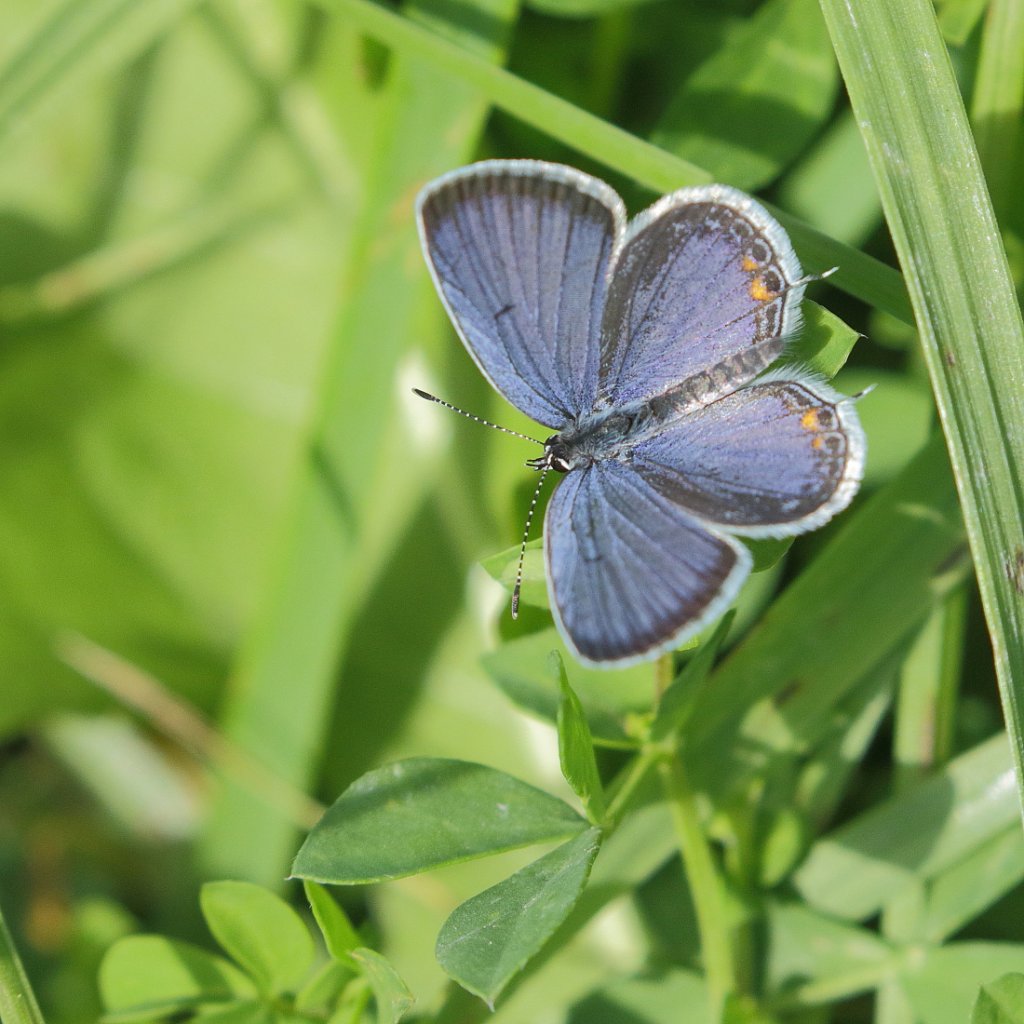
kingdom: Animalia
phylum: Arthropoda
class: Insecta
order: Lepidoptera
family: Lycaenidae
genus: Elkalyce
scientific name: Elkalyce comyntas
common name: Eastern Tailed-Blue
